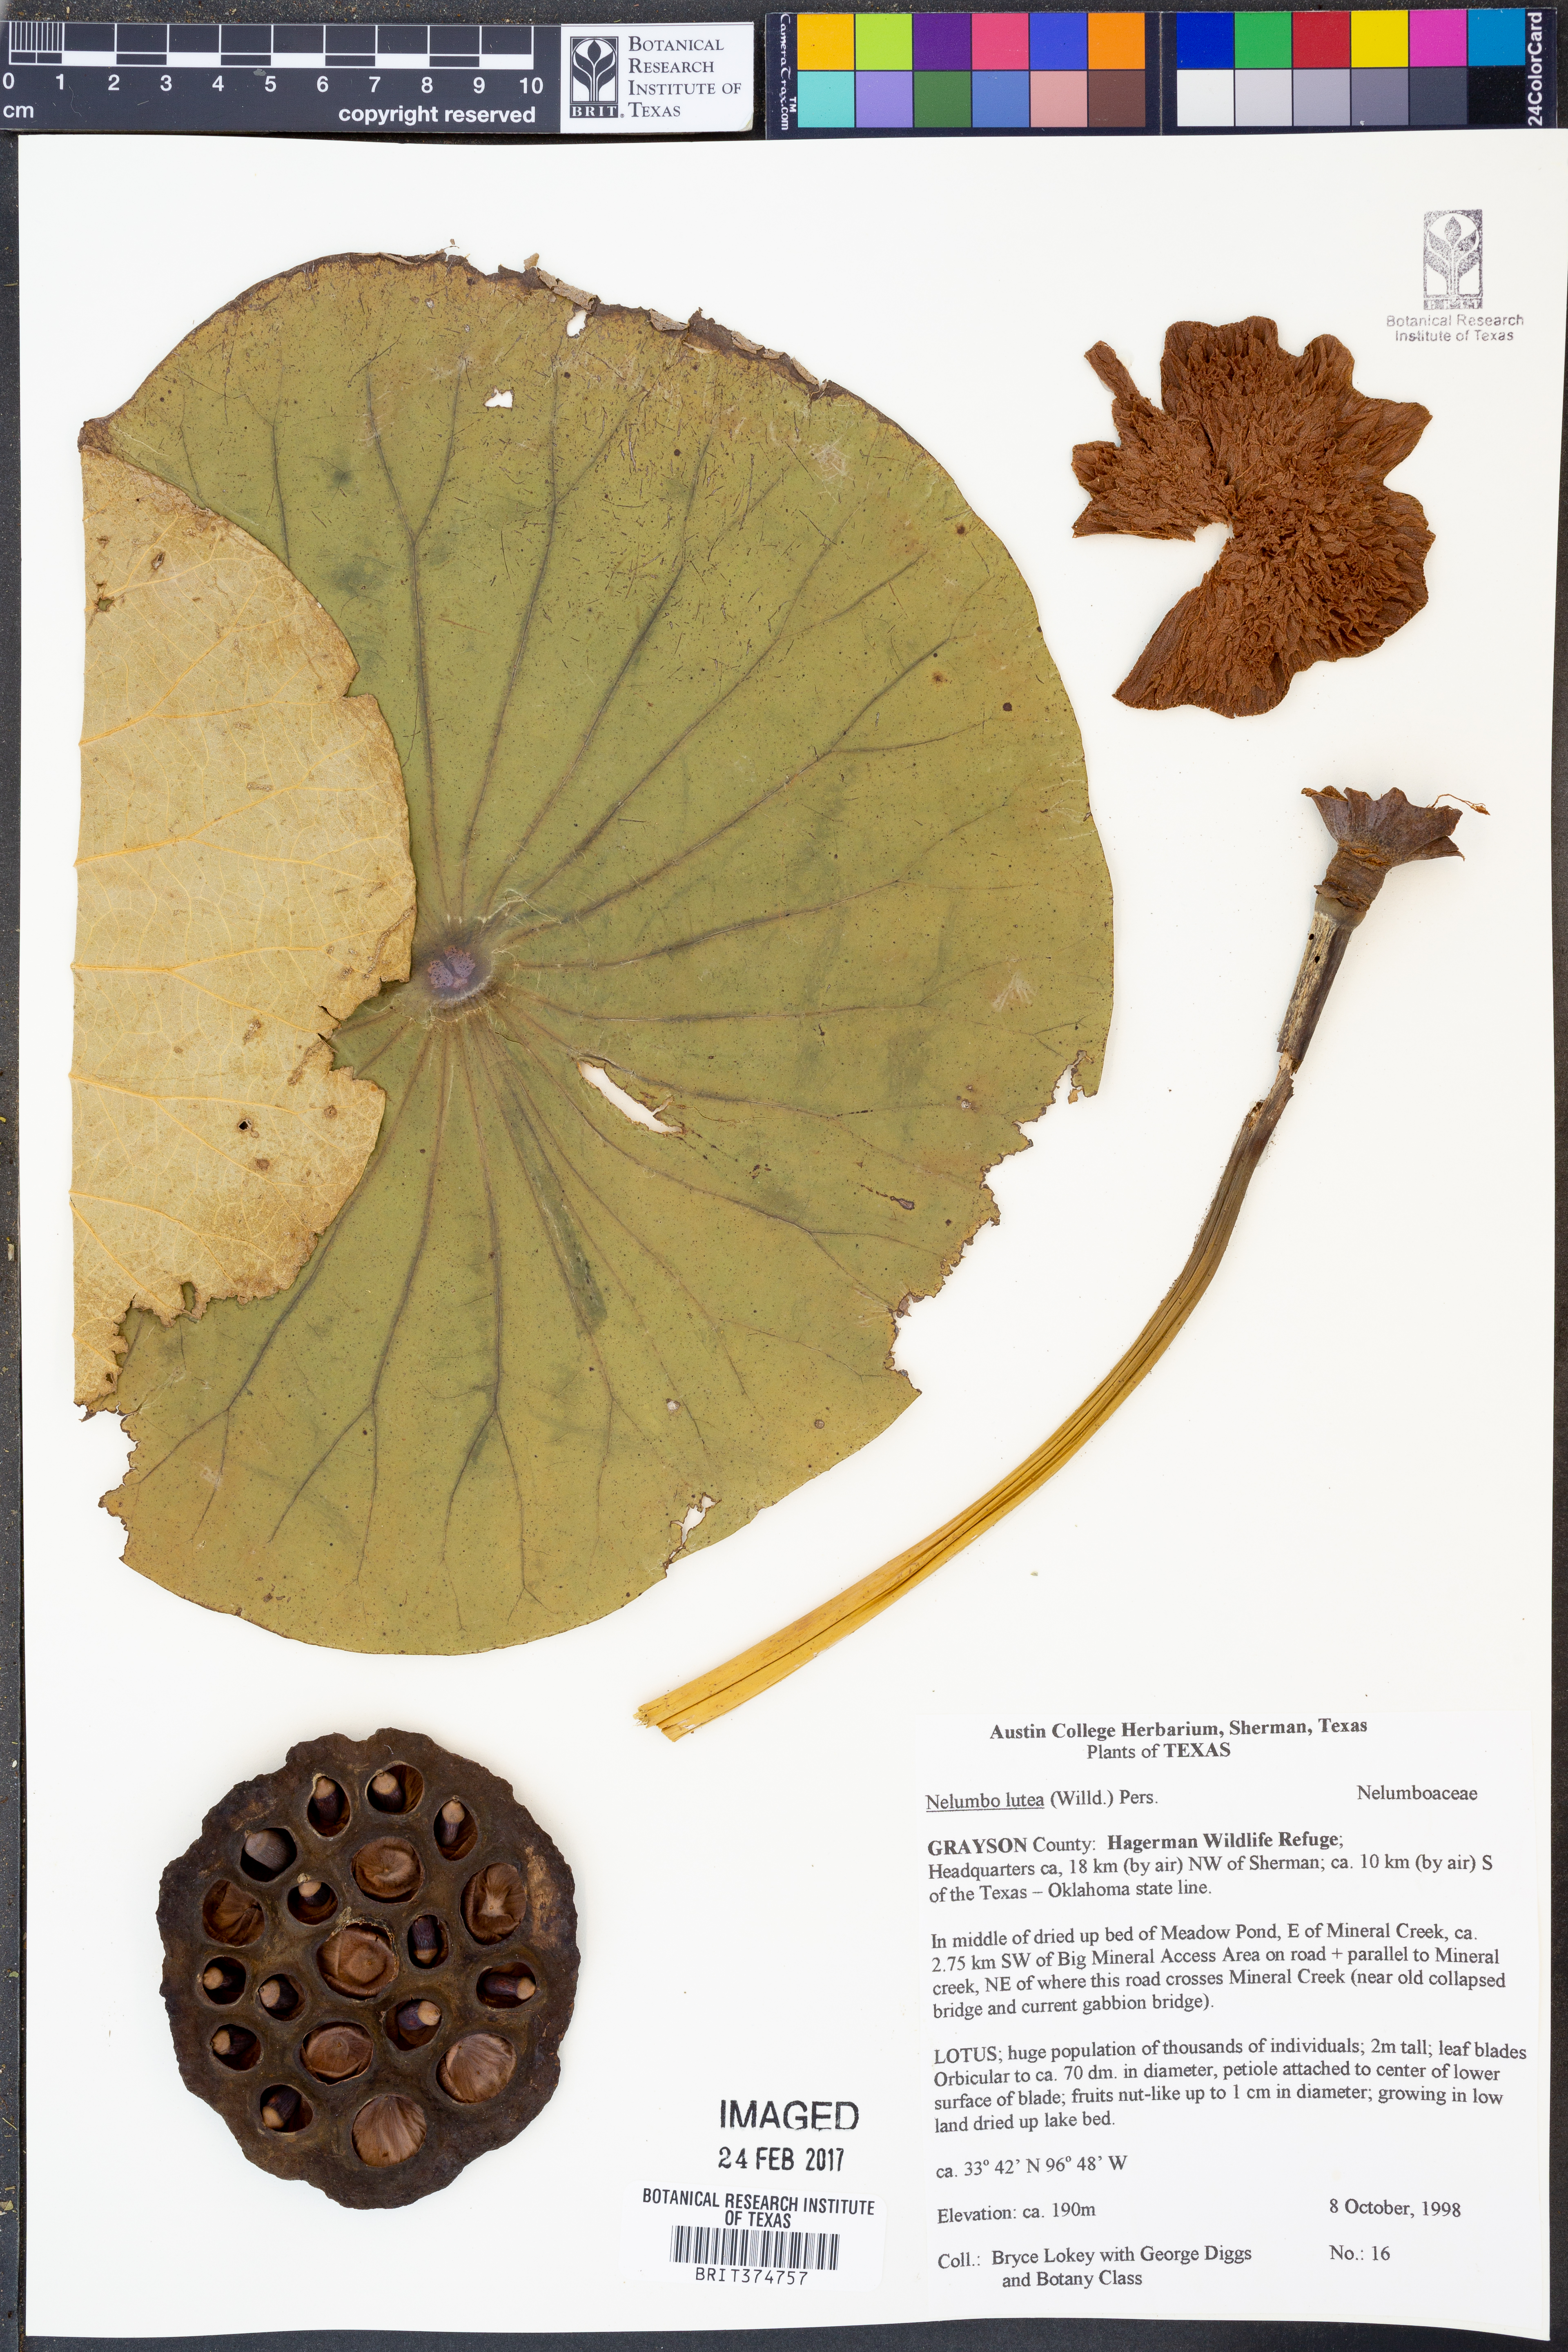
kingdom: Plantae
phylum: Tracheophyta
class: Magnoliopsida
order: Proteales
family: Nelumbonaceae
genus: Nelumbo
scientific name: Nelumbo lutea
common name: American lotus
